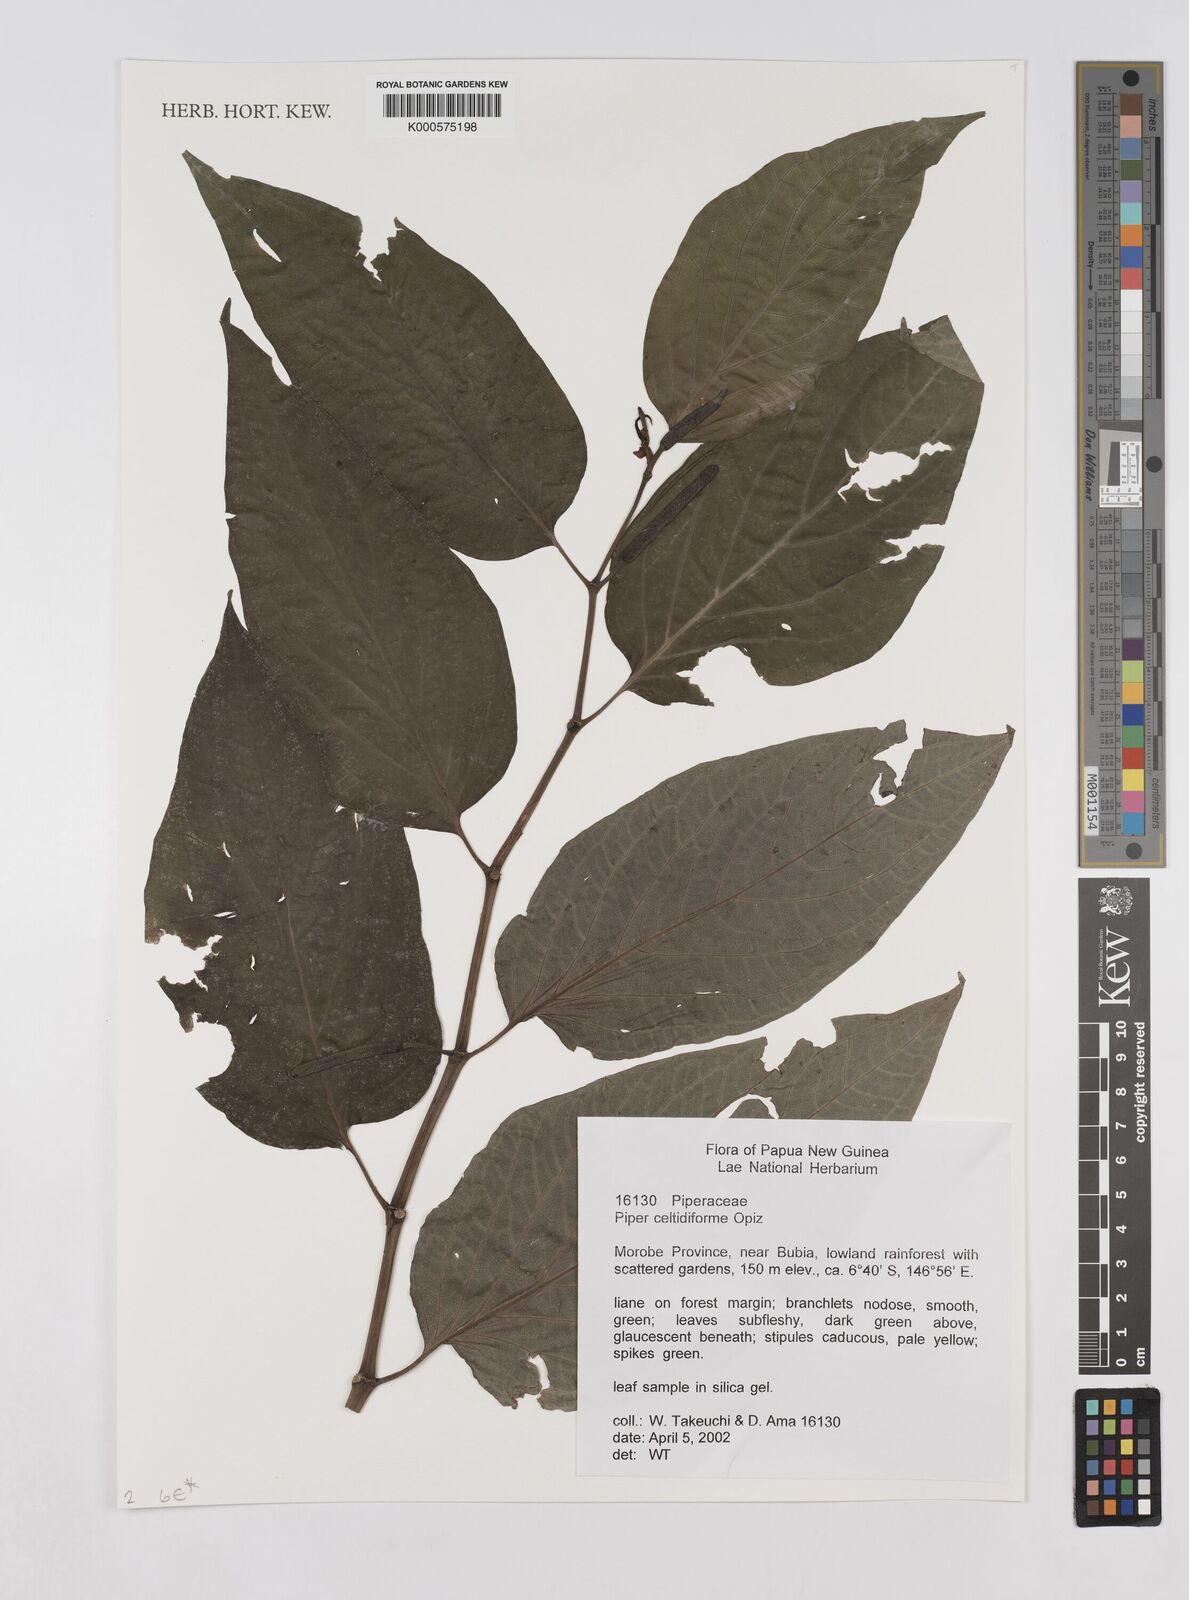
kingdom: Plantae
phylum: Tracheophyta
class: Magnoliopsida
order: Piperales
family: Piperaceae
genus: Piper
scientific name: Piper celtidiforme
